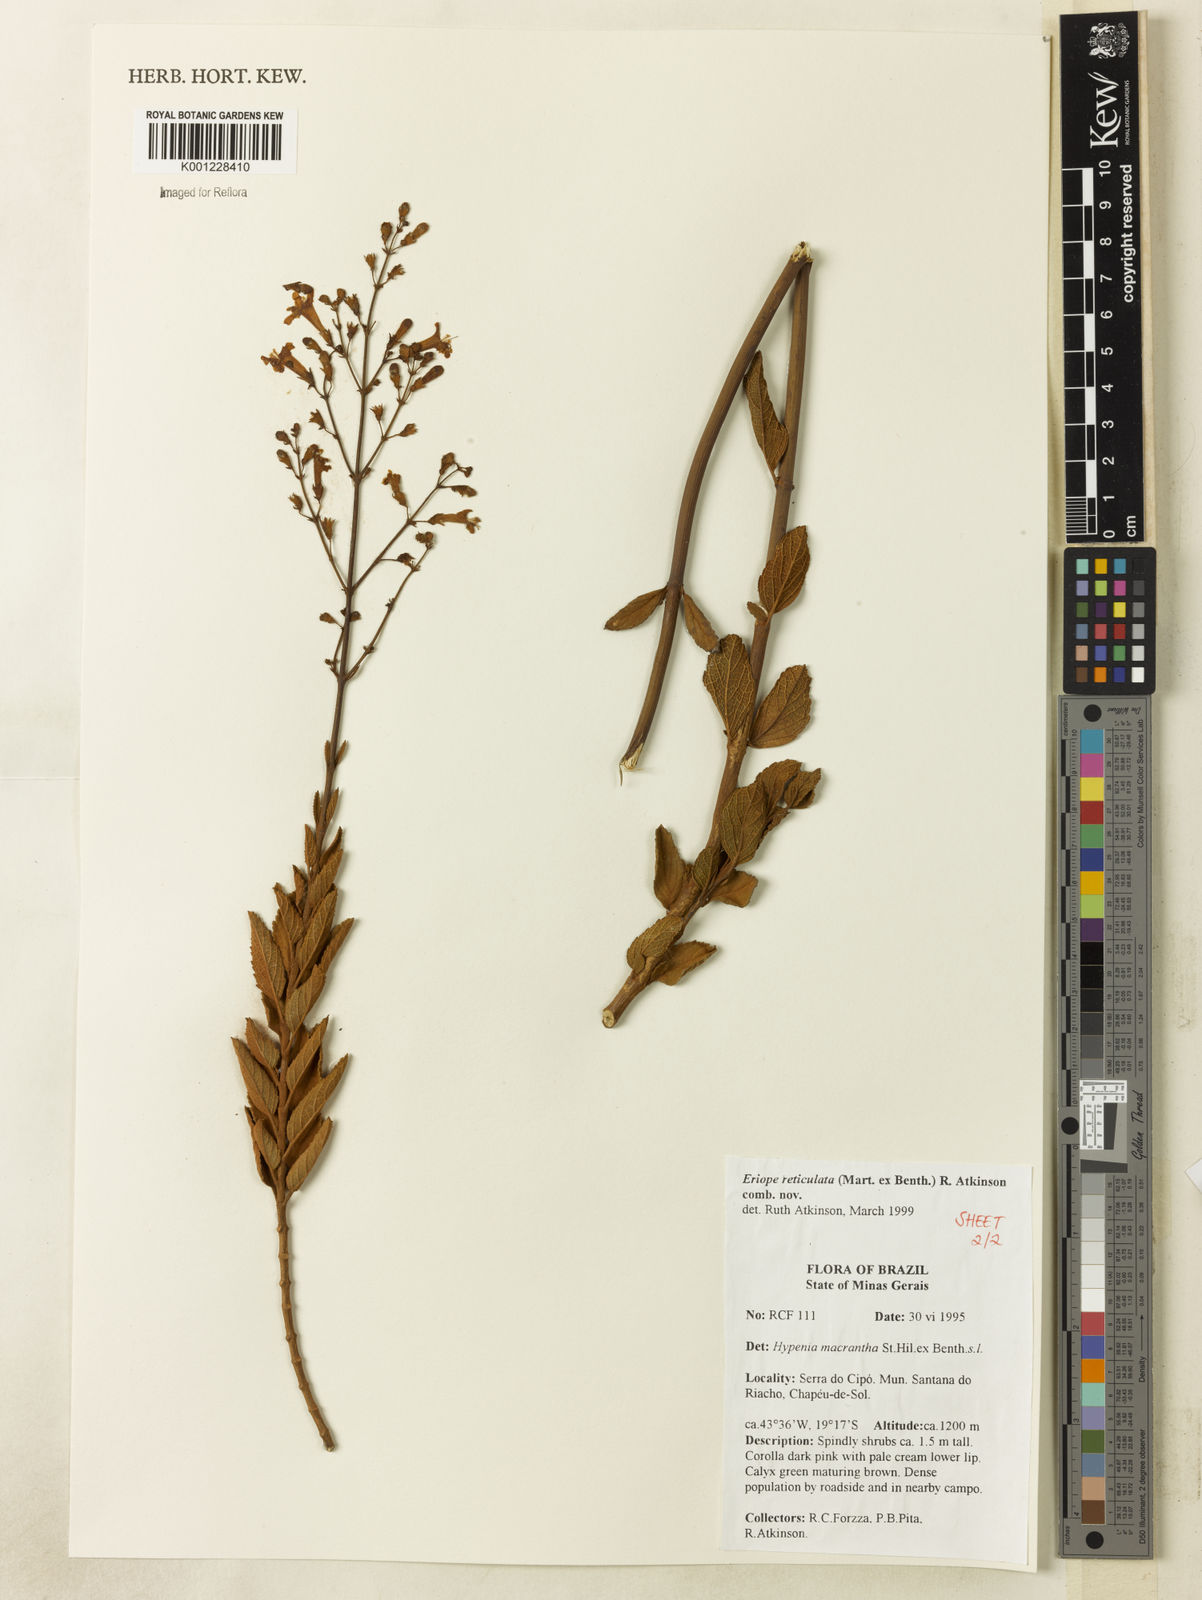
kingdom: Plantae
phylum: Tracheophyta
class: Magnoliopsida
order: Lamiales
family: Lamiaceae
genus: Hypenia
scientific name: Hypenia reticulata
